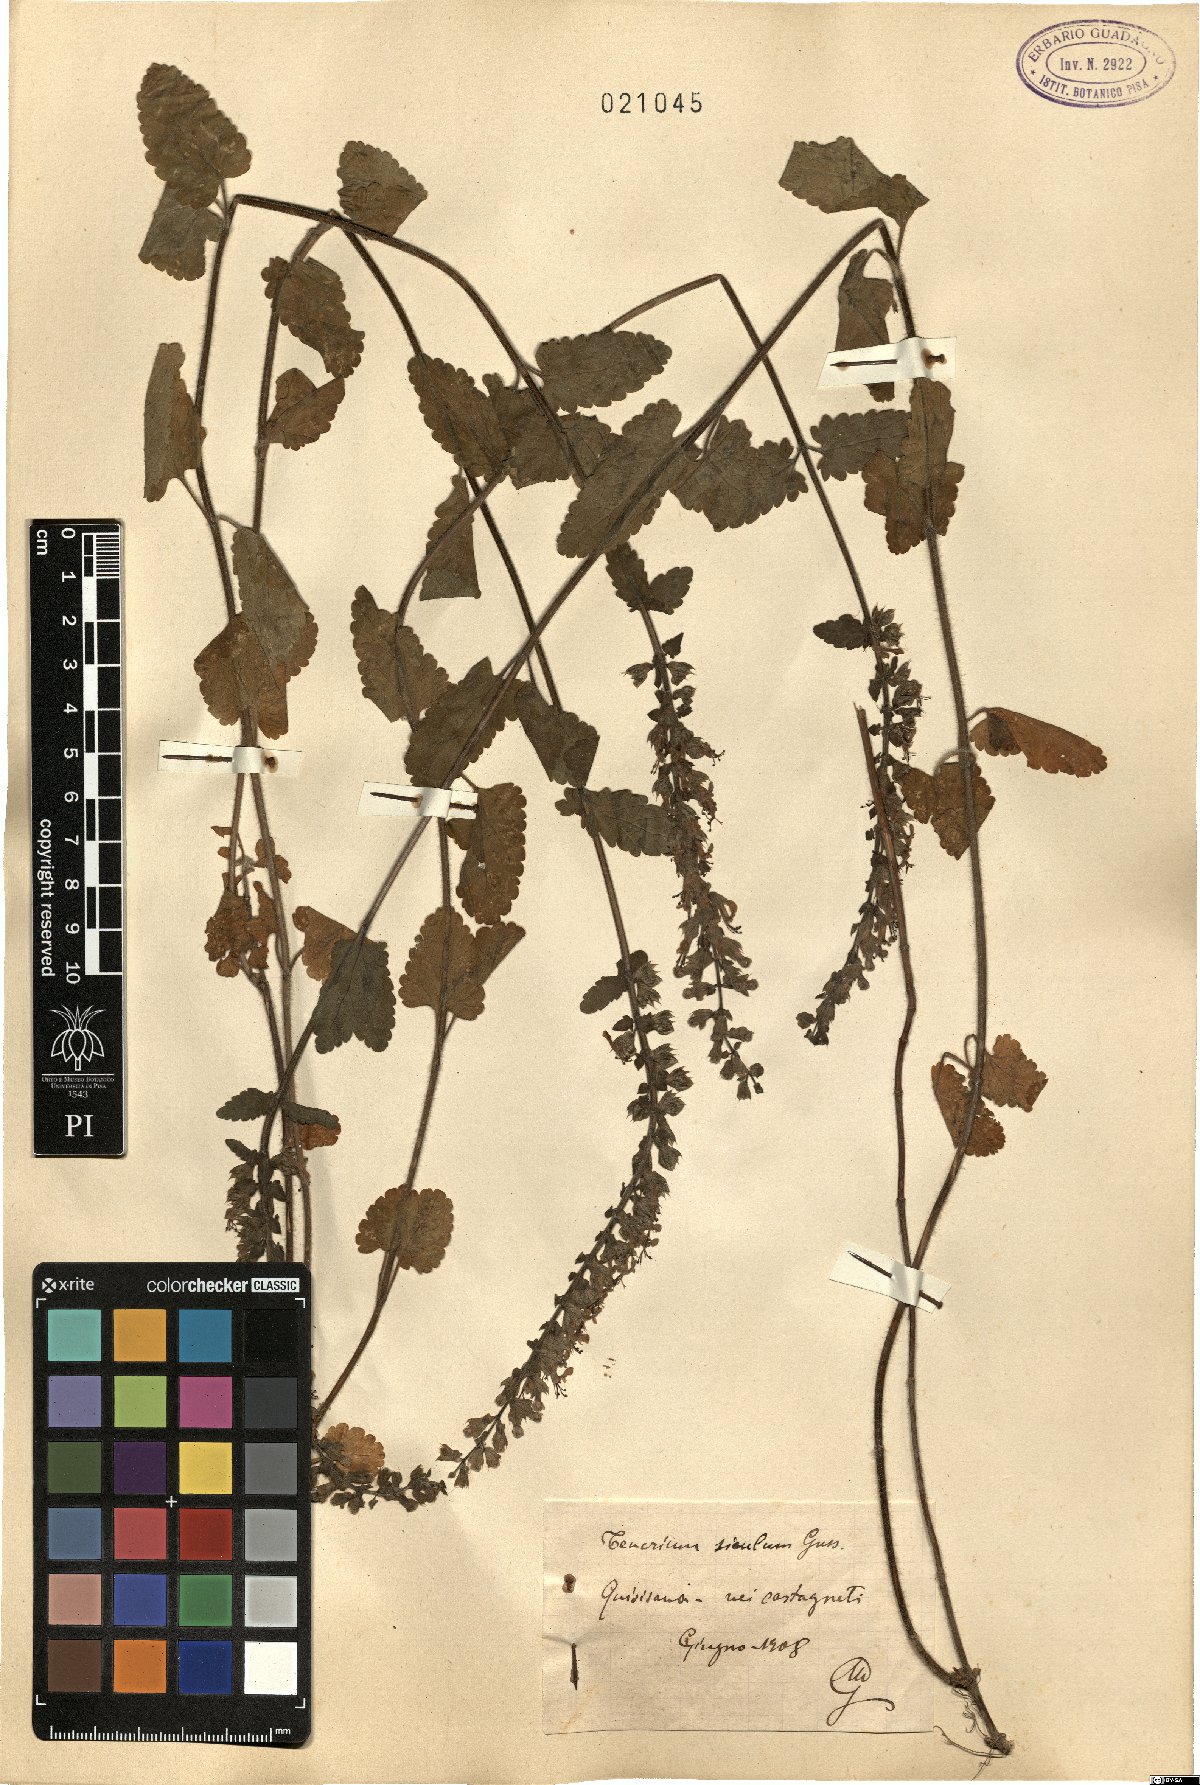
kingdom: Plantae
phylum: Tracheophyta
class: Magnoliopsida
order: Lamiales
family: Lamiaceae
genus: Teucrium
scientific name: Teucrium siculum
